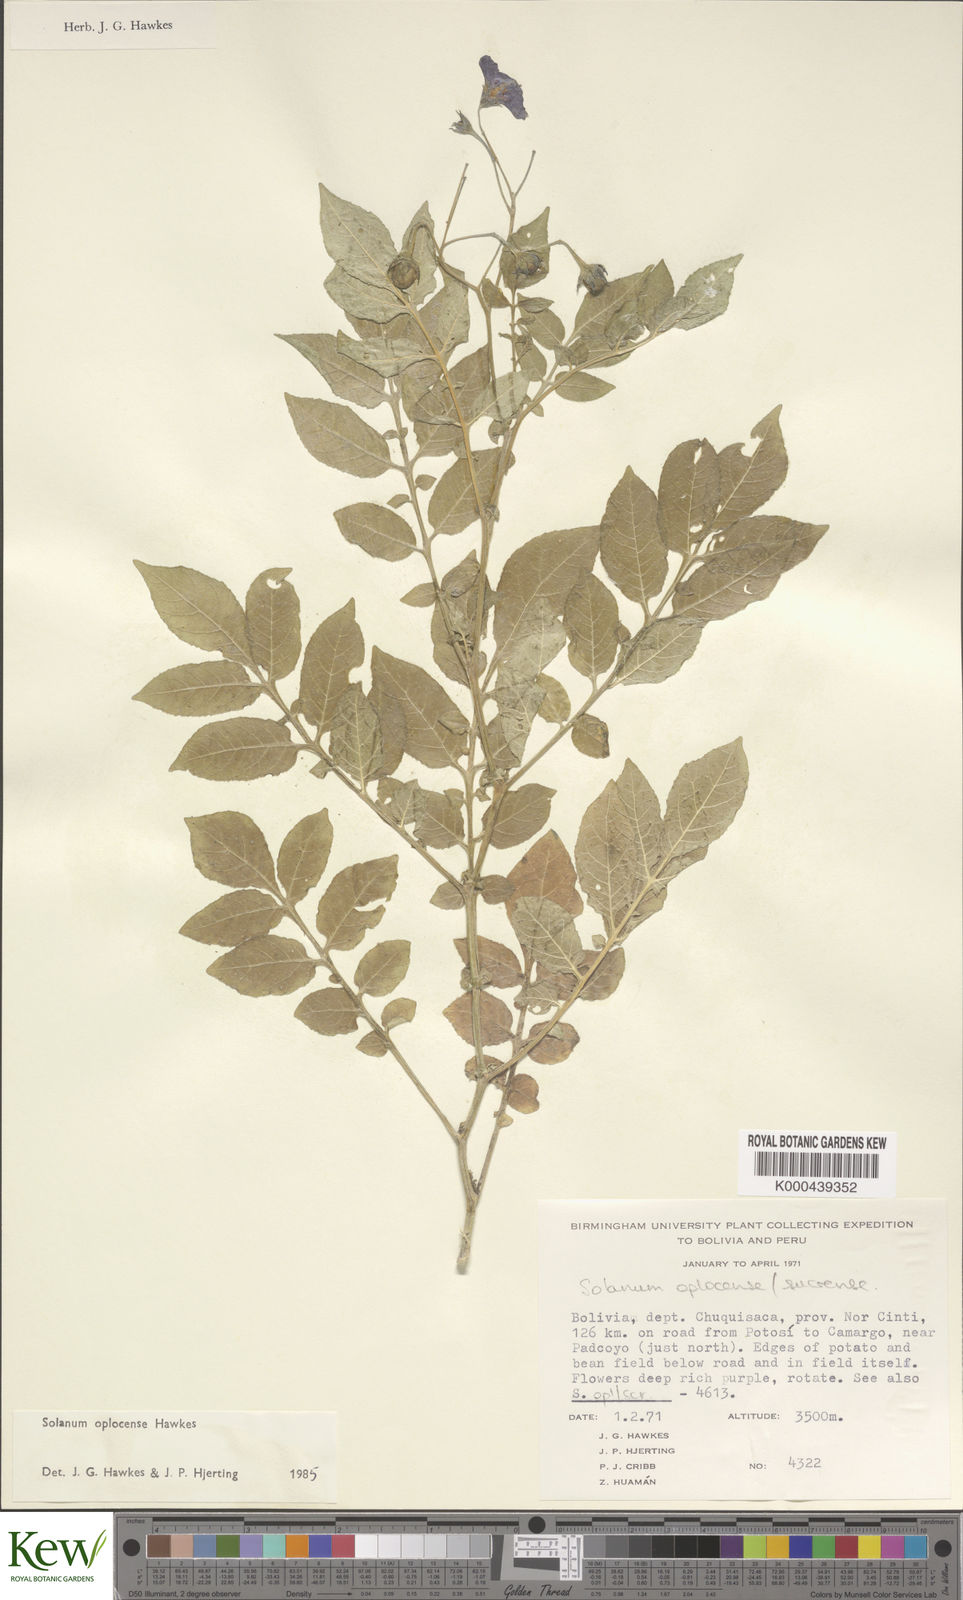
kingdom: Plantae
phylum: Tracheophyta
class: Magnoliopsida
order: Solanales
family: Solanaceae
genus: Solanum
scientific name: Solanum brevicaule
